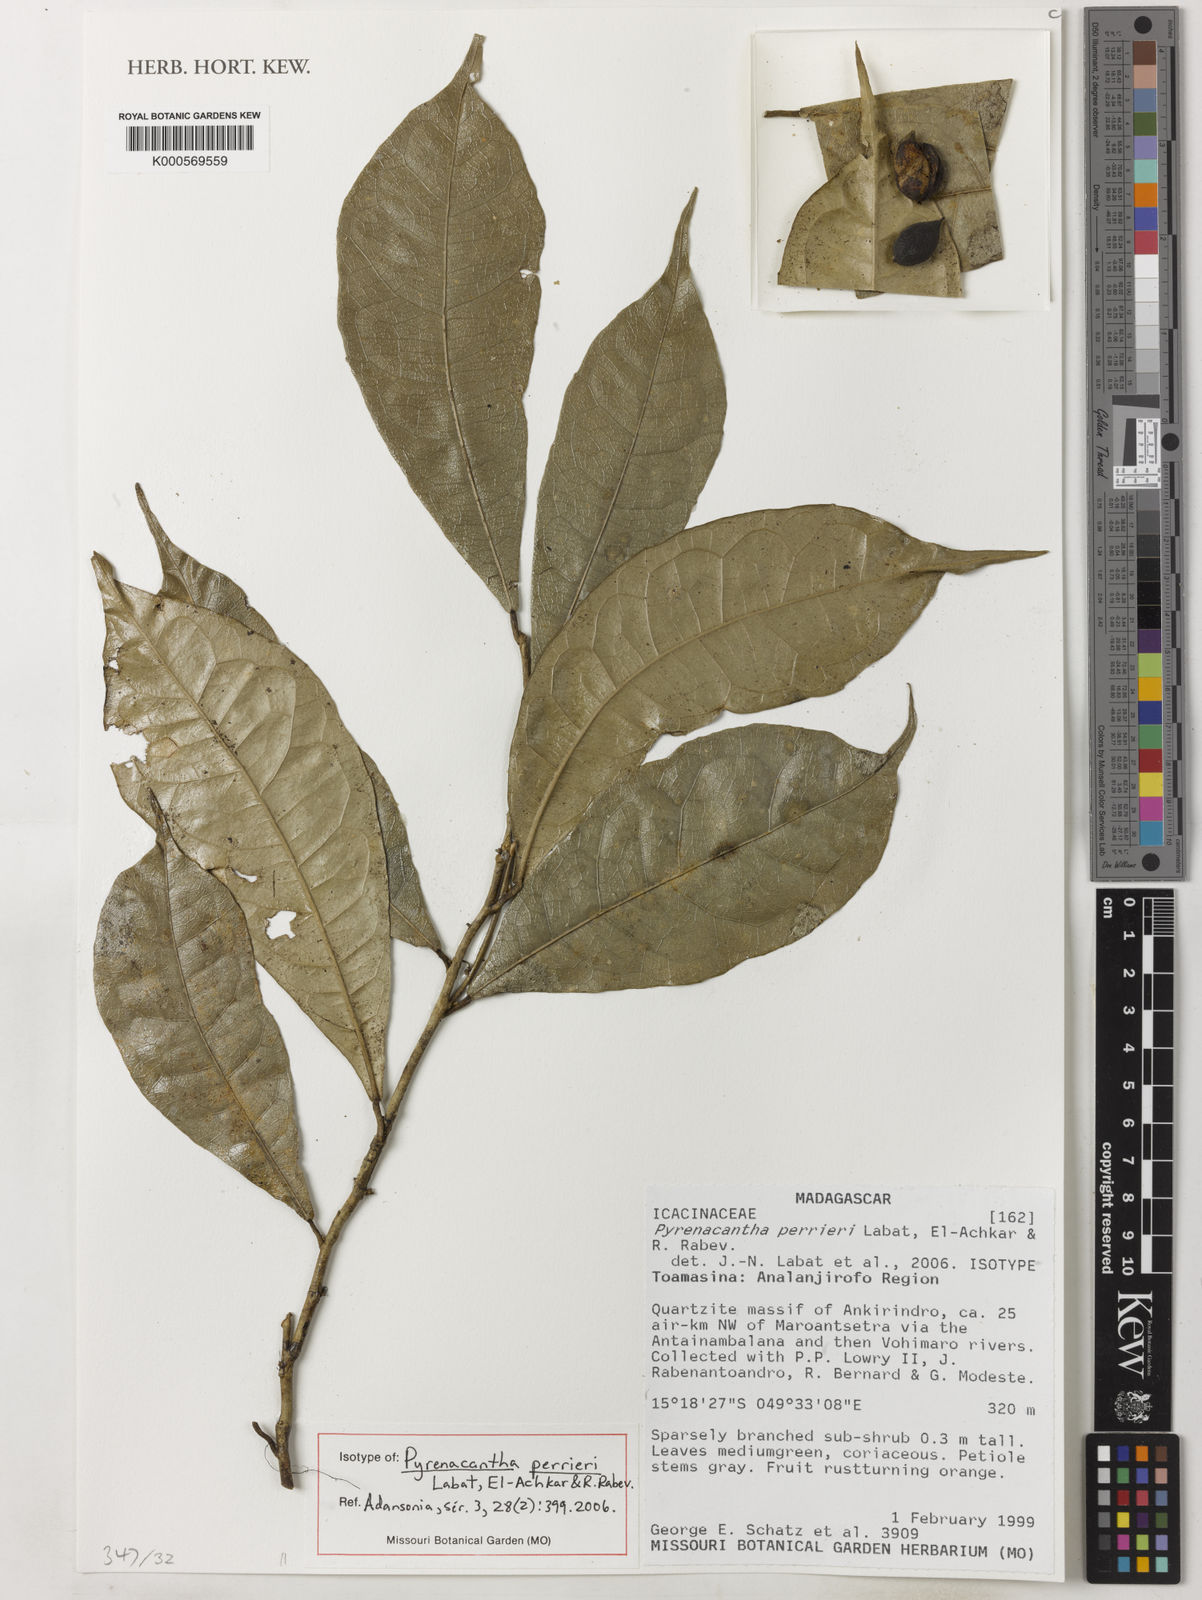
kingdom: Plantae
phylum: Tracheophyta
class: Magnoliopsida
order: Icacinales
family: Icacinaceae
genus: Pyrenacantha
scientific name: Pyrenacantha perrieri
